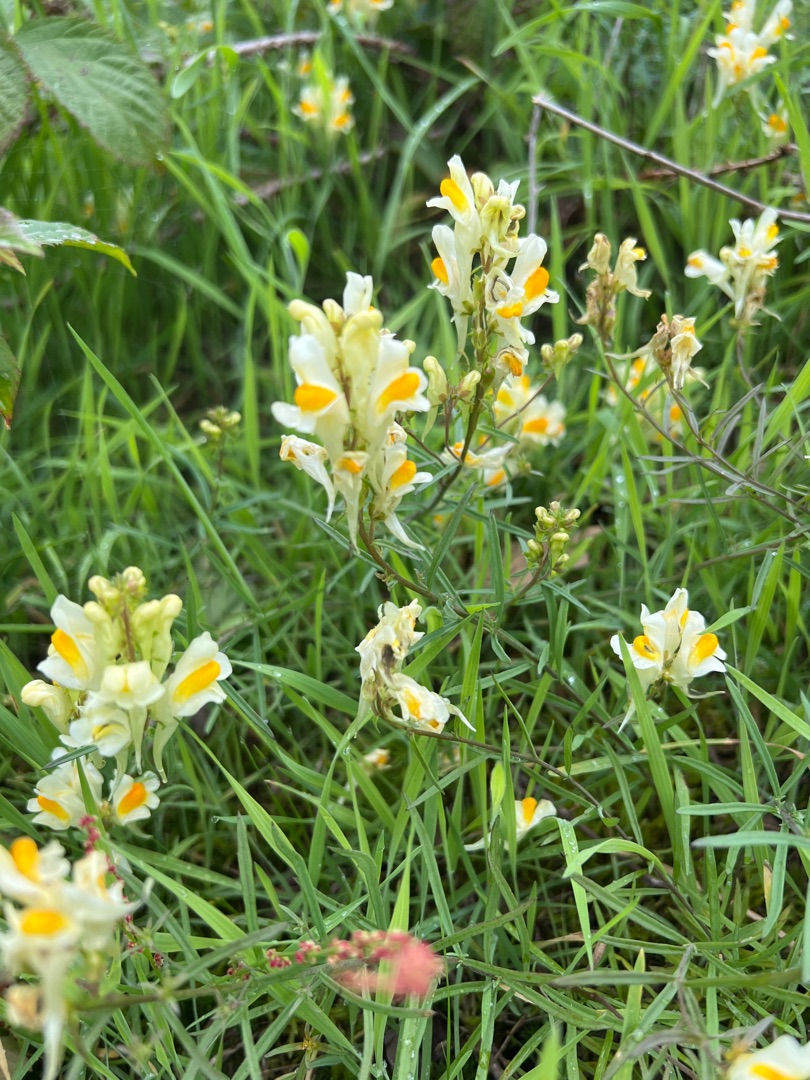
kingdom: Plantae
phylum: Tracheophyta
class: Magnoliopsida
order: Lamiales
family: Plantaginaceae
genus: Linaria
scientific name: Linaria vulgaris
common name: Almindelig torskemund
